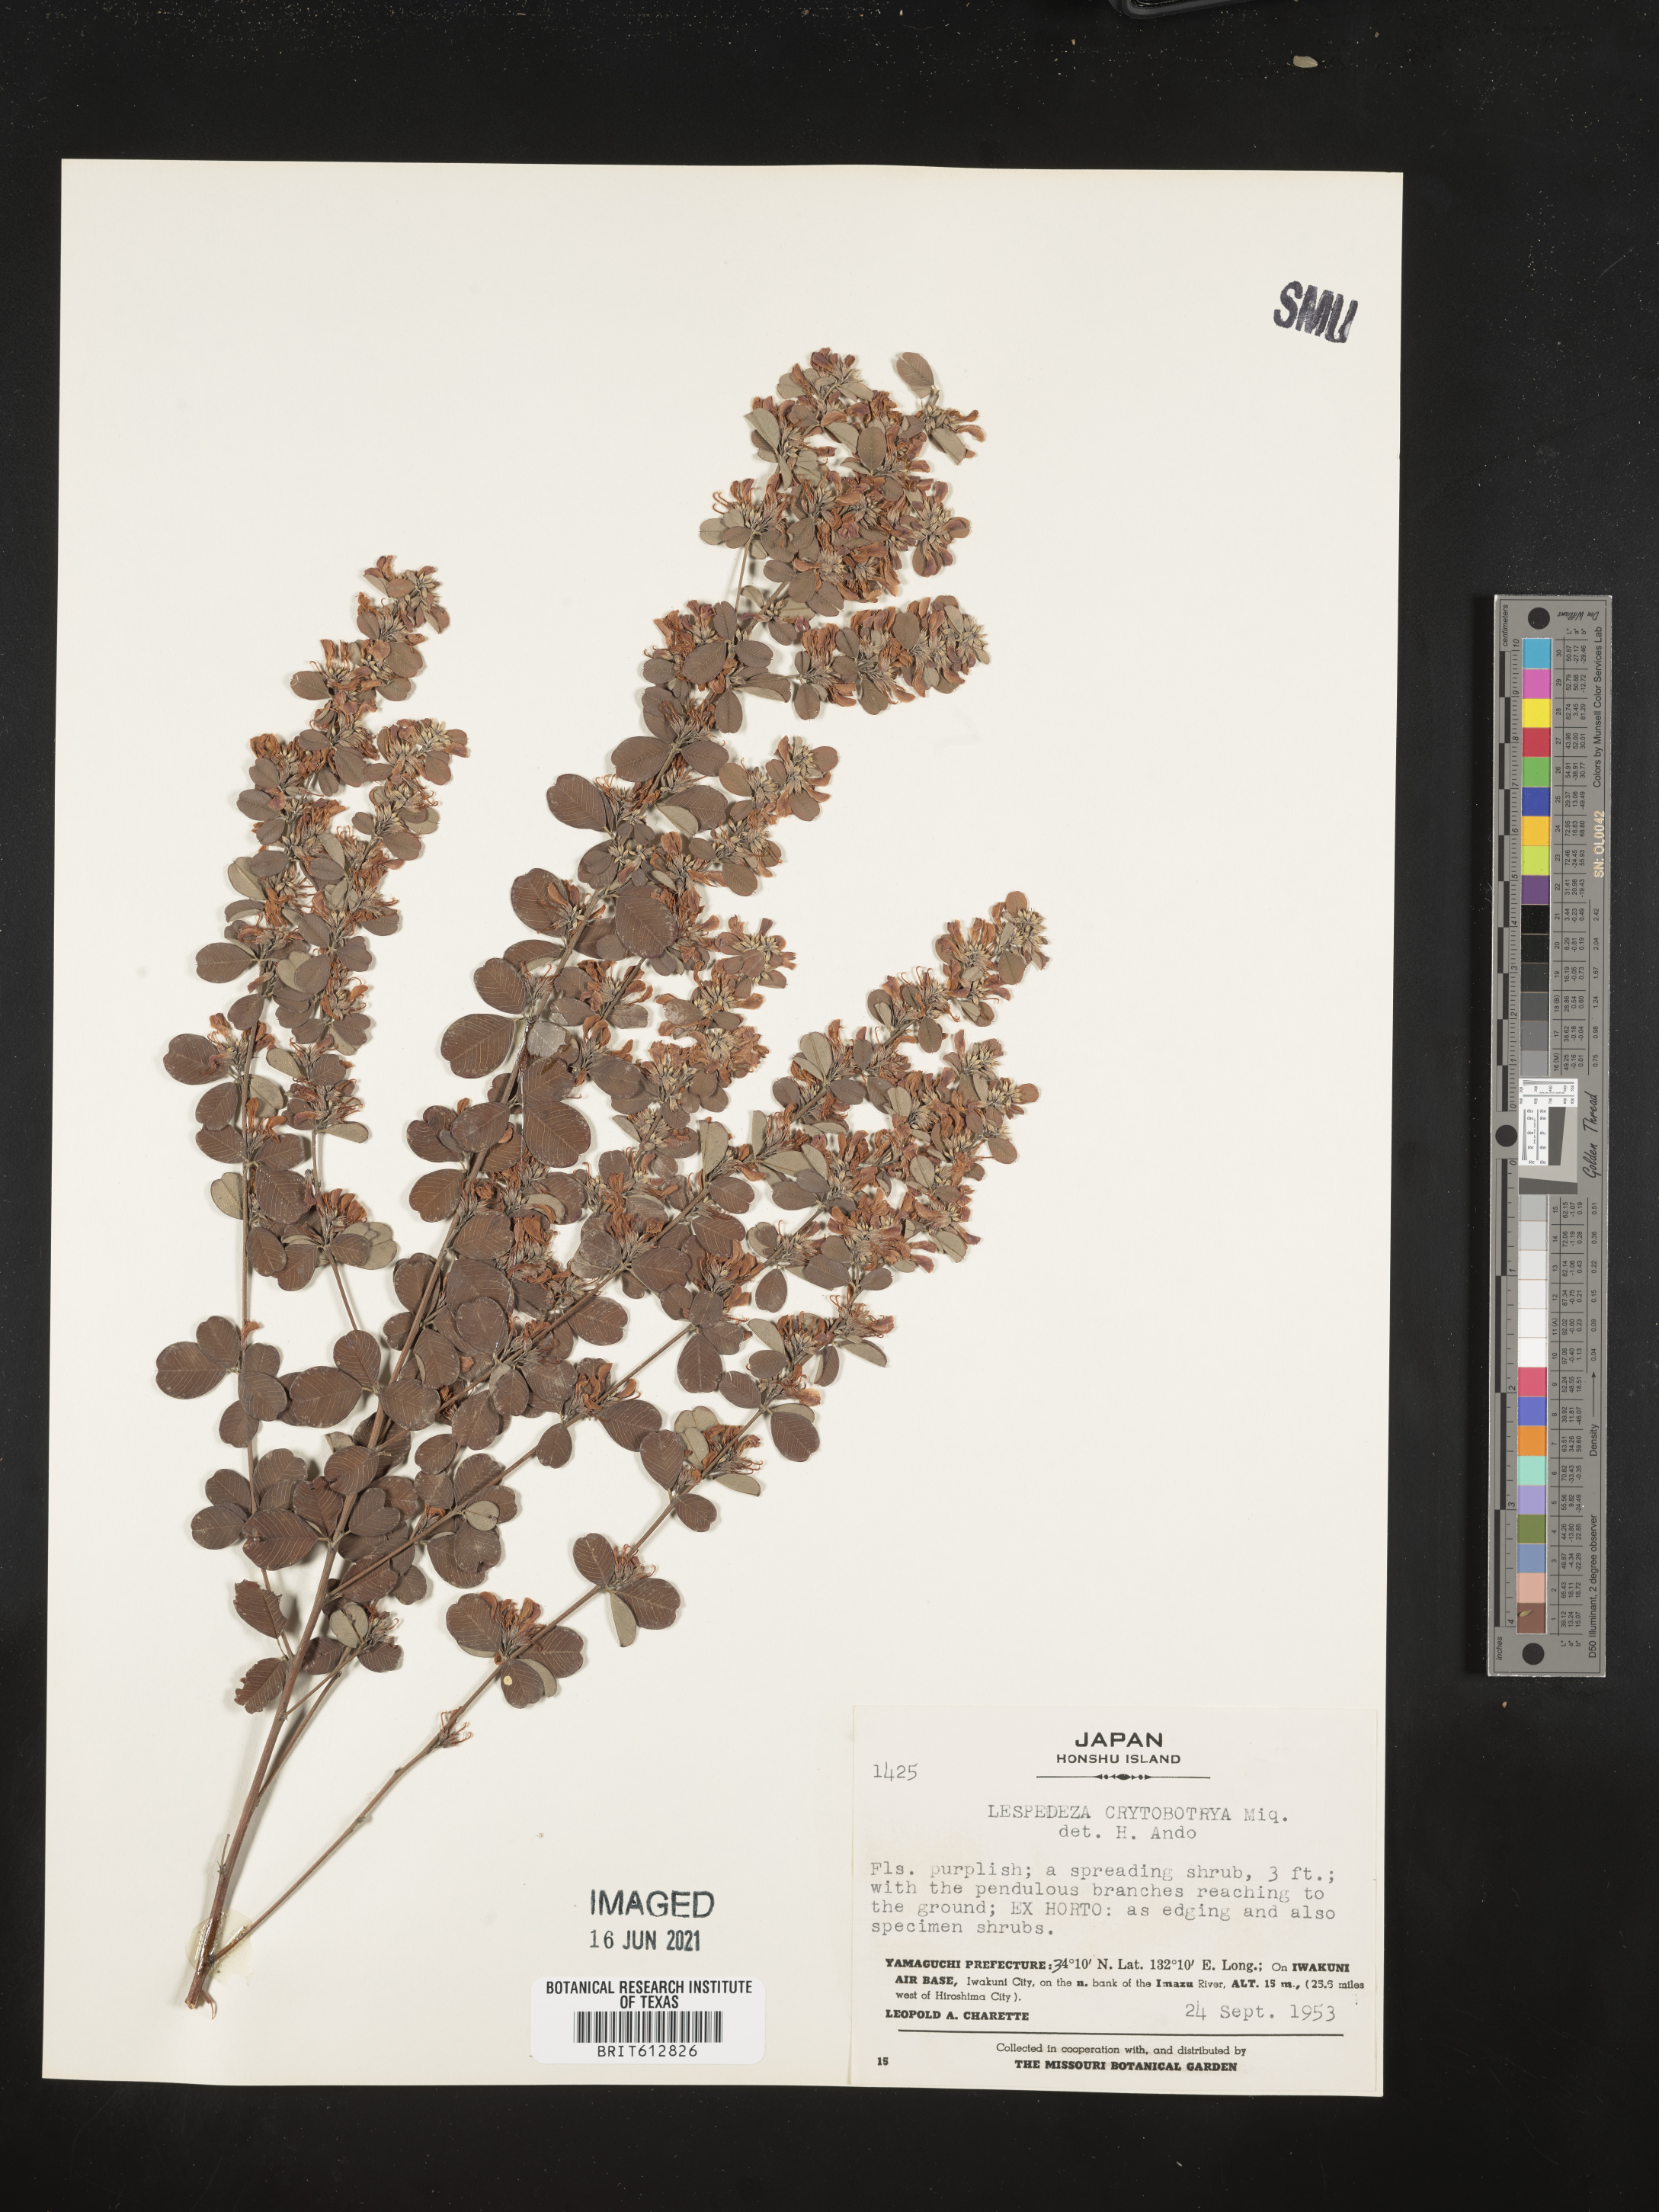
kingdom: Plantae
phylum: Tracheophyta
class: Magnoliopsida
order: Fabales
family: Fabaceae
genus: Lespedeza
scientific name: Lespedeza cyrtobotrya
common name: Leafy lespedeza
